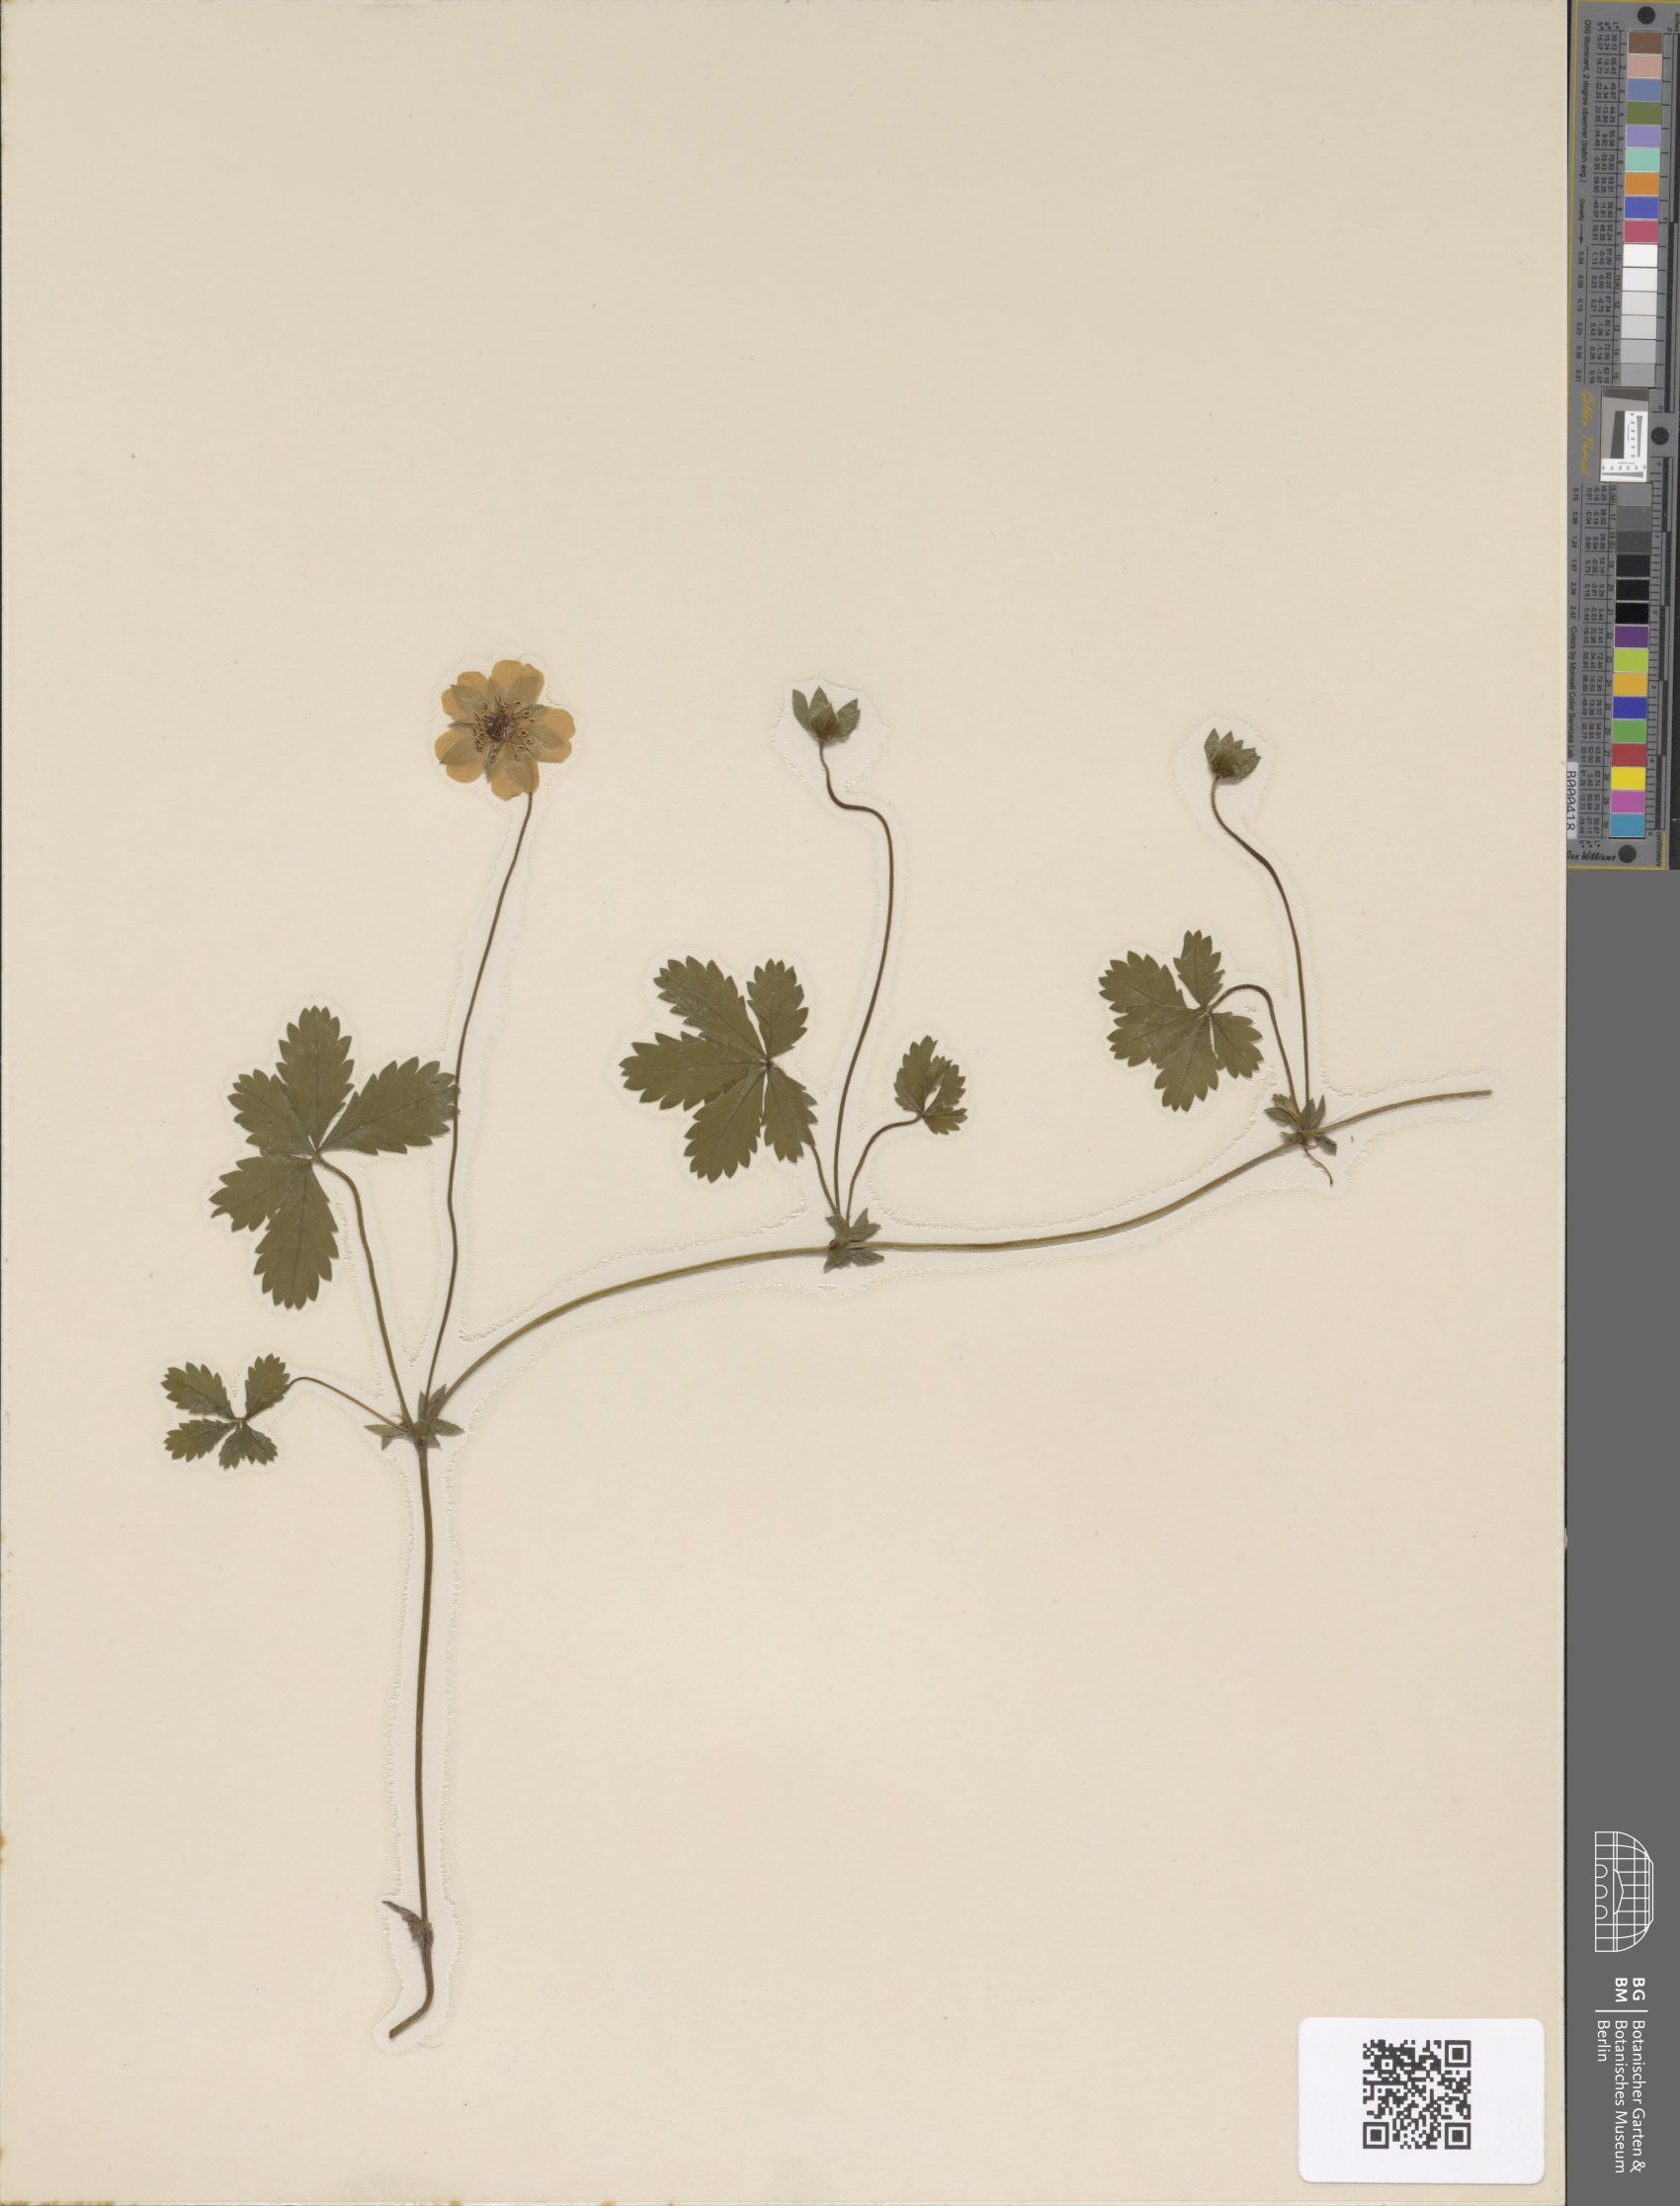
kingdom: Plantae
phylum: Tracheophyta
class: Magnoliopsida
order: Rosales
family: Rosaceae
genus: Potentilla
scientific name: Potentilla reptans
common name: Creeping cinquefoil
